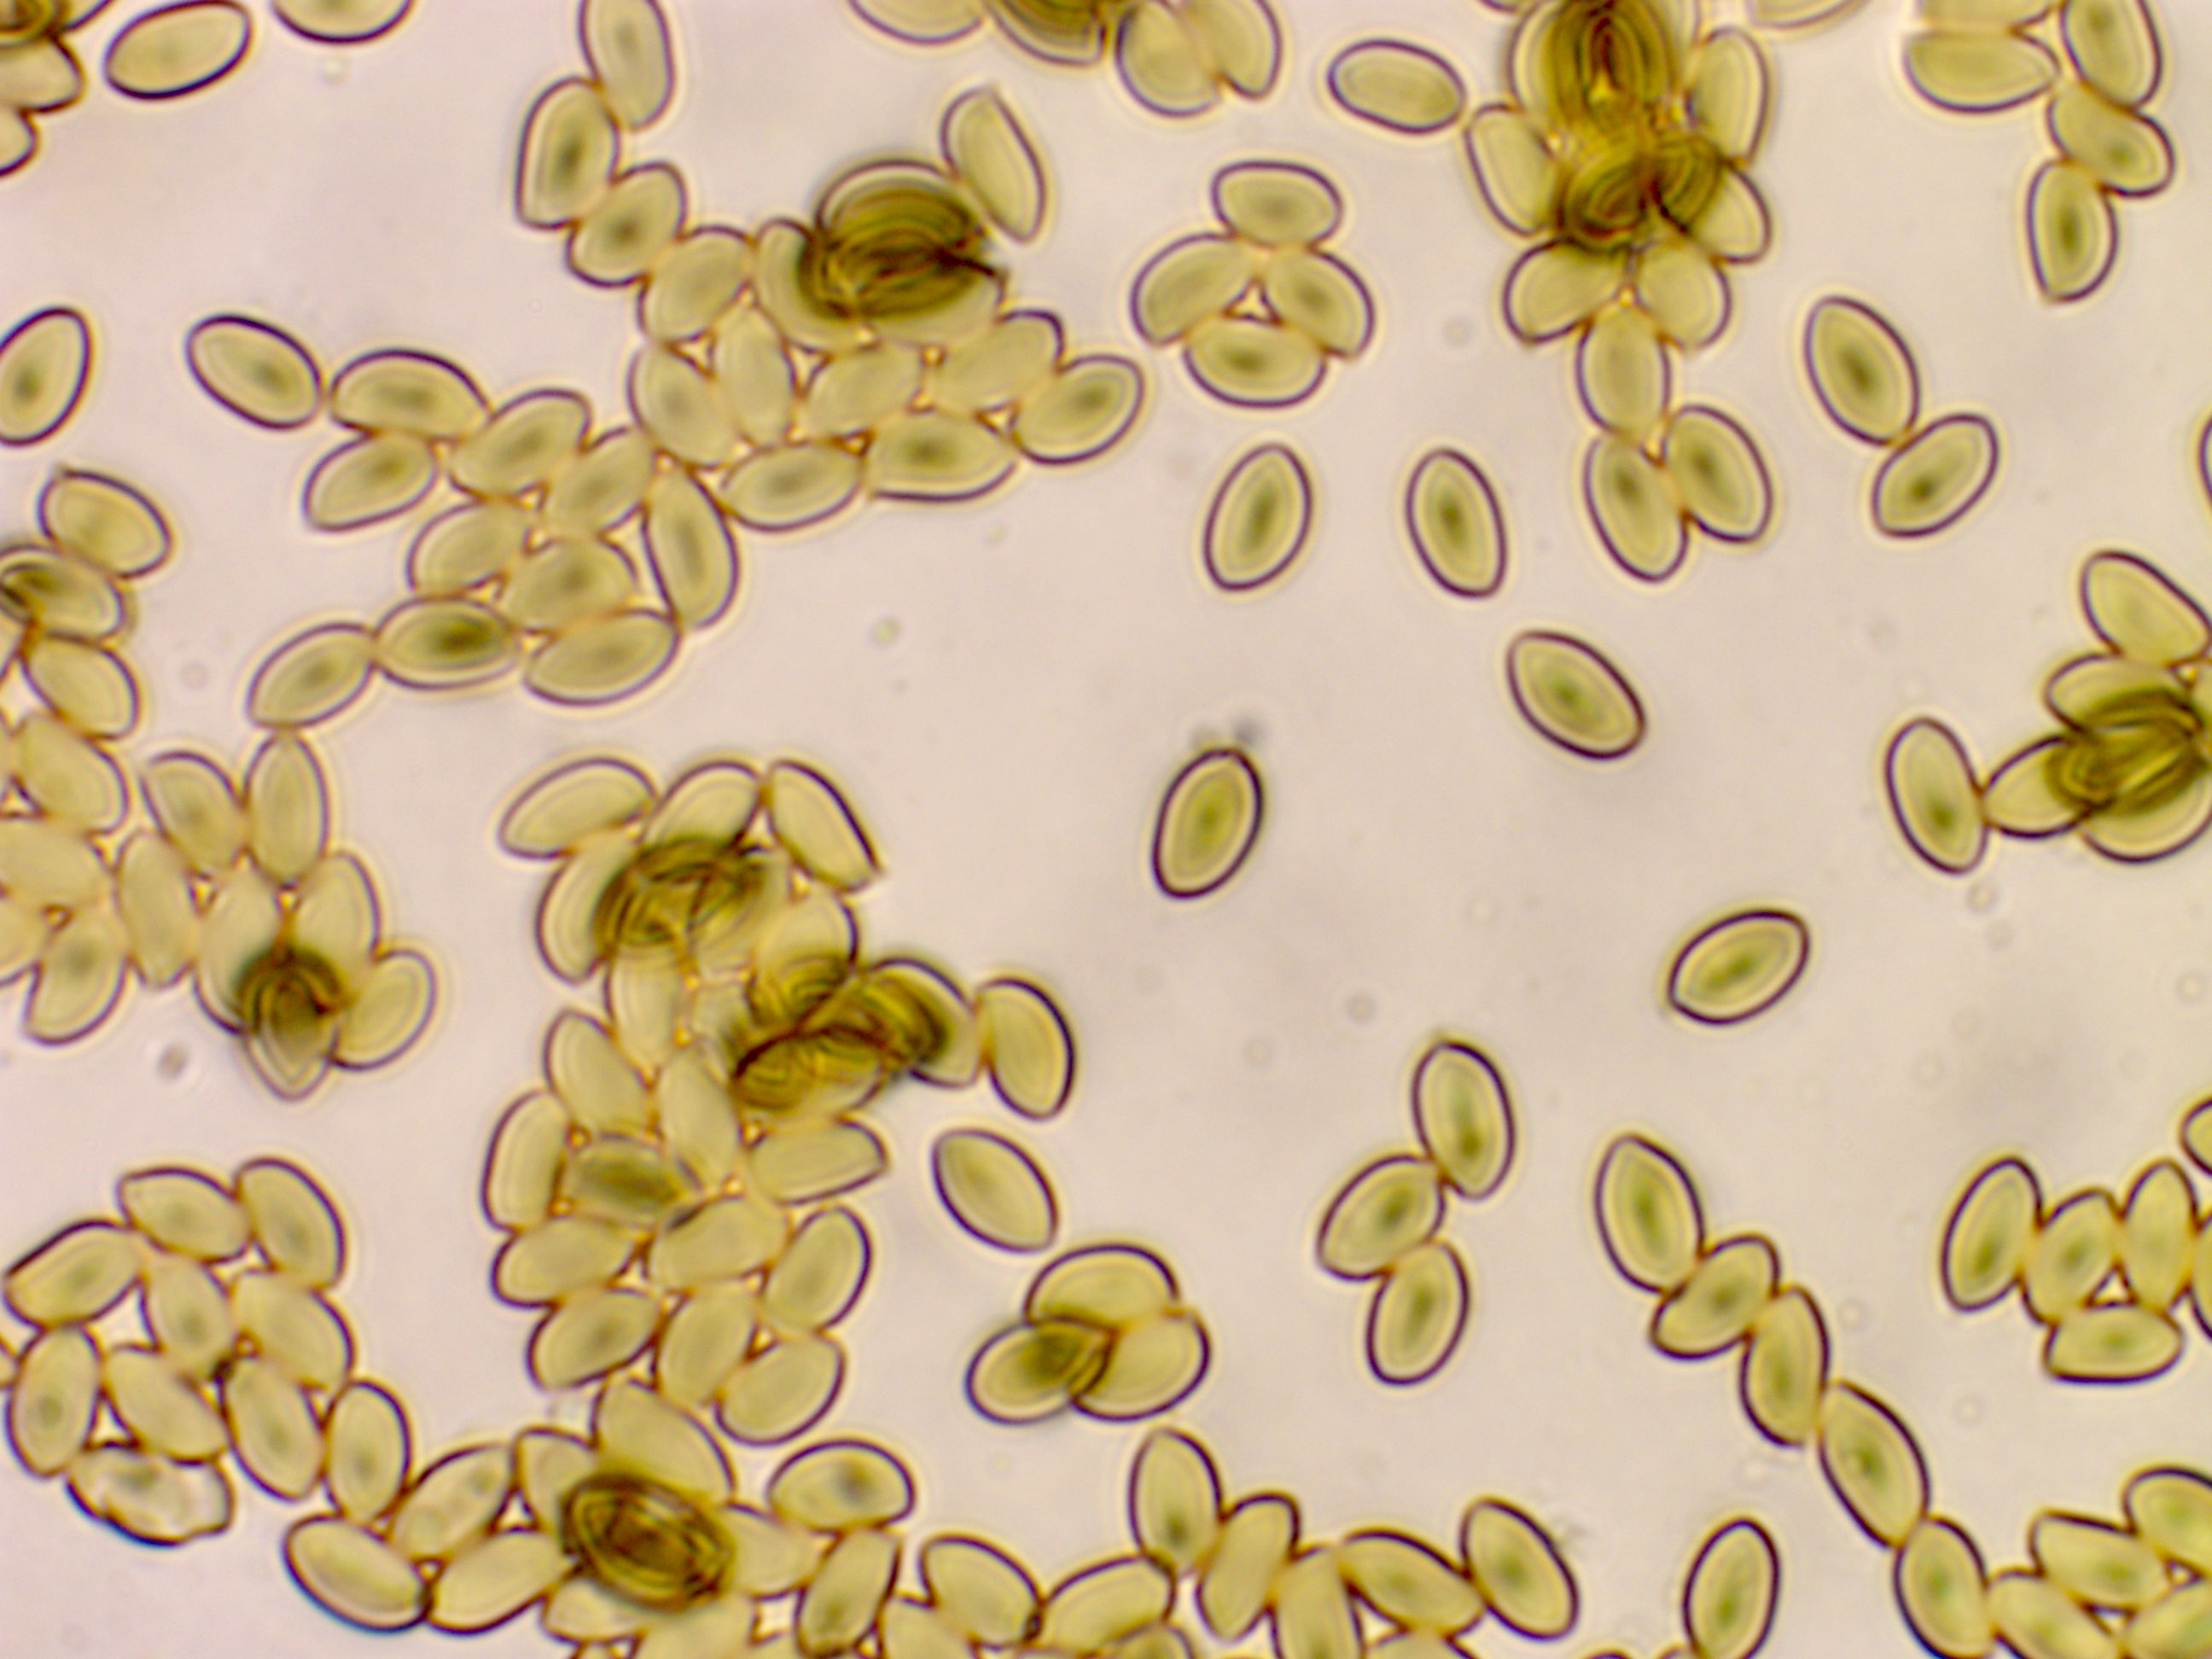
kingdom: Fungi
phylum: Basidiomycota
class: Agaricomycetes
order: Agaricales
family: Agaricaceae
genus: Macrolepiota
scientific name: Macrolepiota fuliginosa
